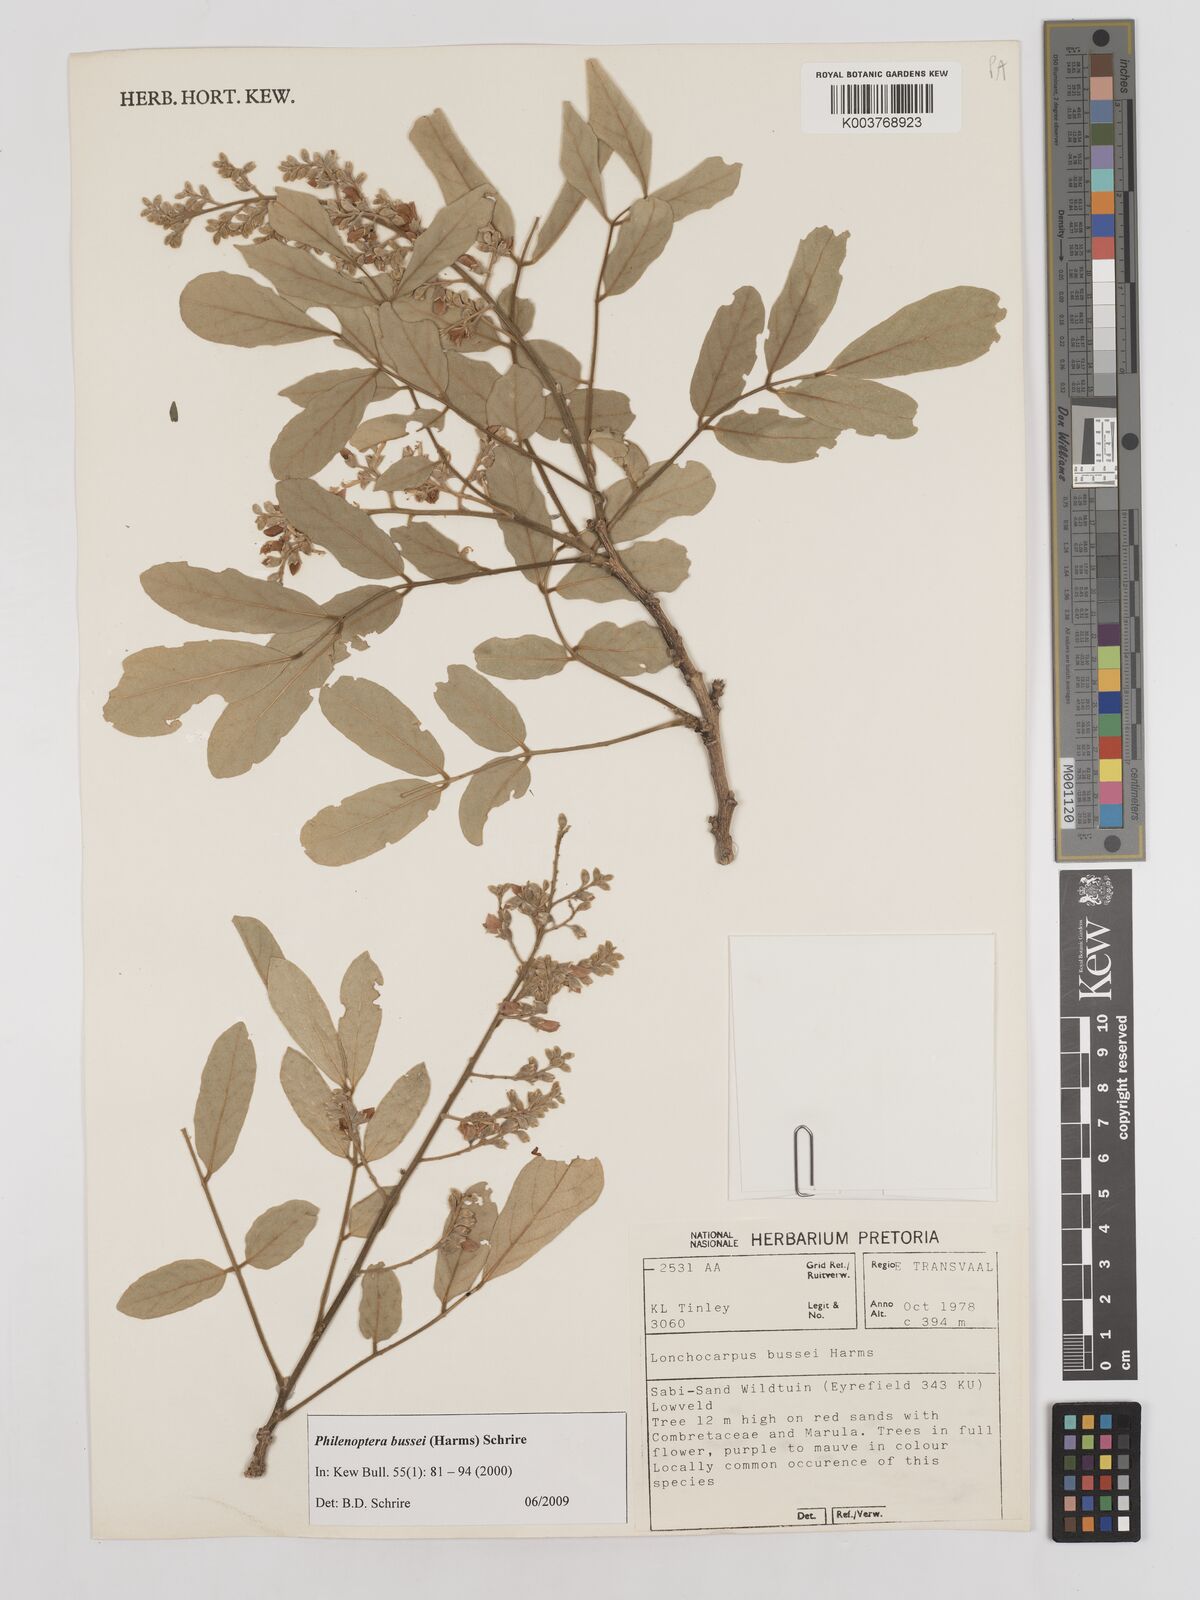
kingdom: Plantae
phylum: Tracheophyta
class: Magnoliopsida
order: Fabales
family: Fabaceae
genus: Philenoptera
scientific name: Philenoptera bussei
